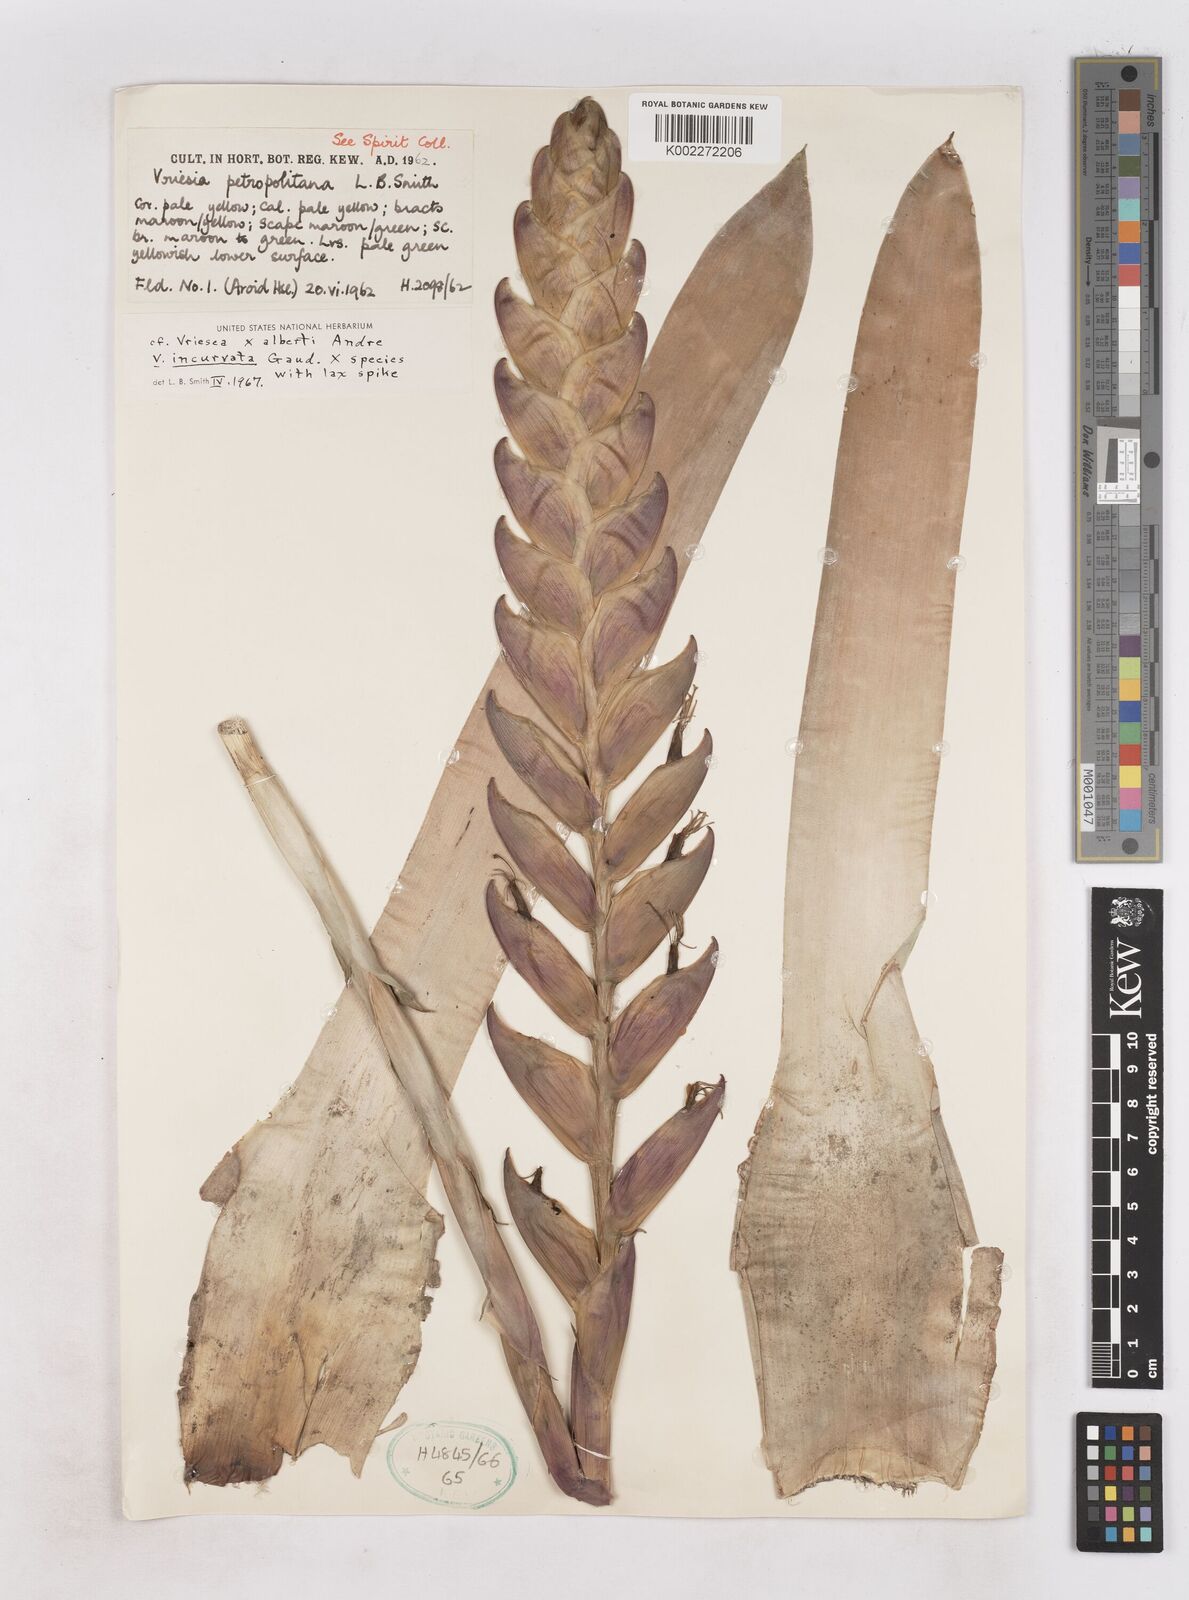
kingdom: Plantae
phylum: Tracheophyta
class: Liliopsida
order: Poales
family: Bromeliaceae
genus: Vriesea
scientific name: Vriesea albertii
